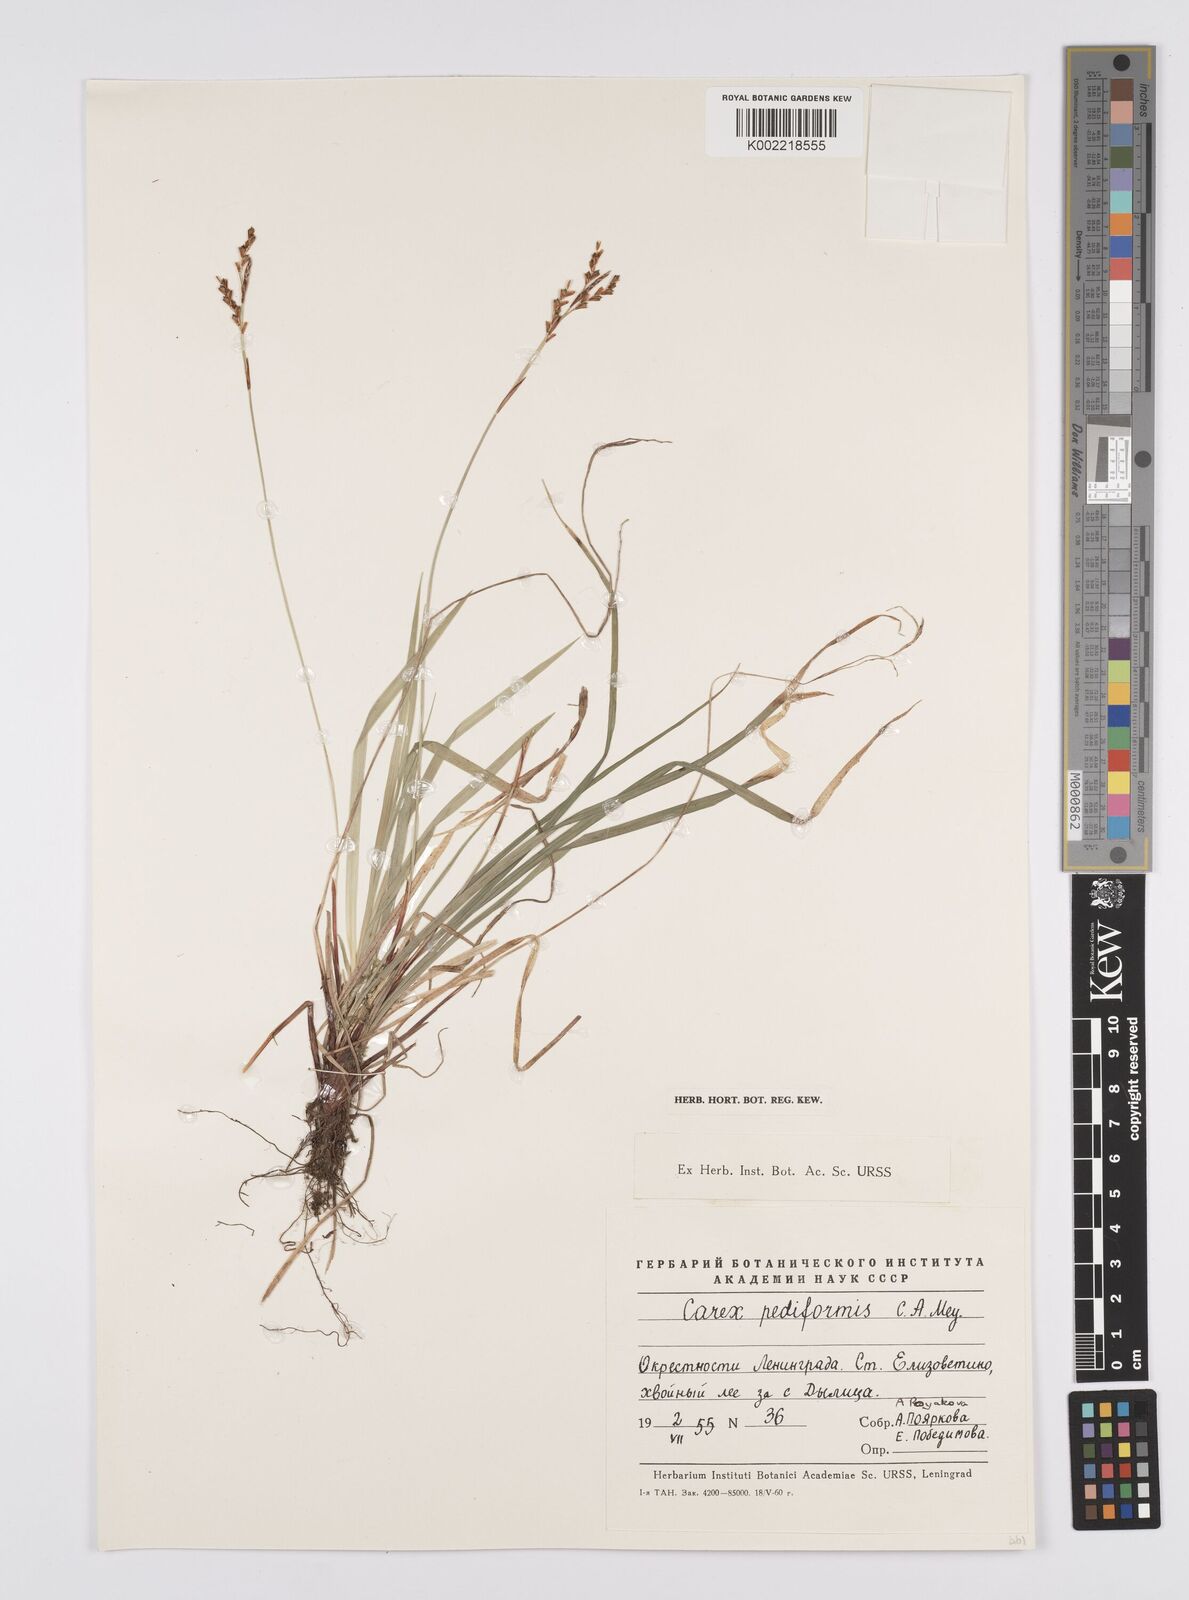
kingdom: Plantae
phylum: Tracheophyta
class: Liliopsida
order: Poales
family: Cyperaceae
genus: Carex
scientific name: Carex pediformis
